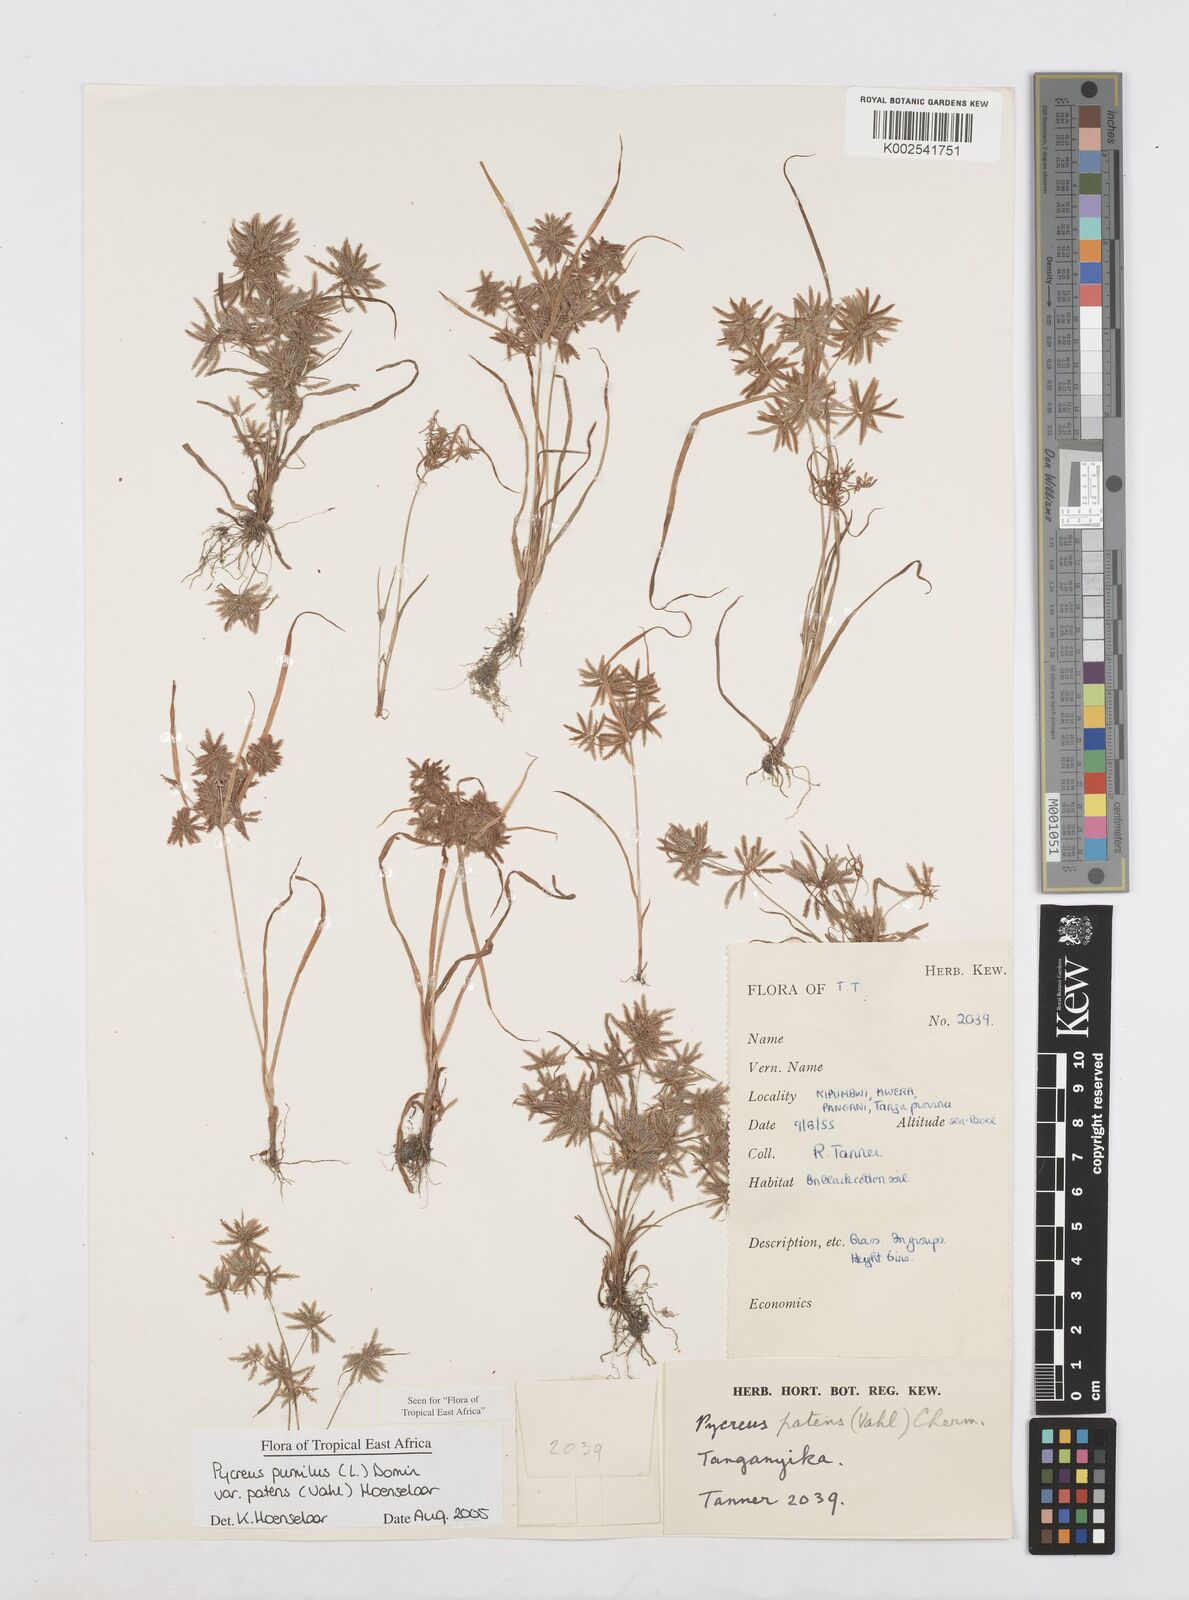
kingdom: Plantae
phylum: Tracheophyta
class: Liliopsida
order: Poales
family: Cyperaceae
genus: Cyperus
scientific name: Cyperus pumilus
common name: Low flatsedge
